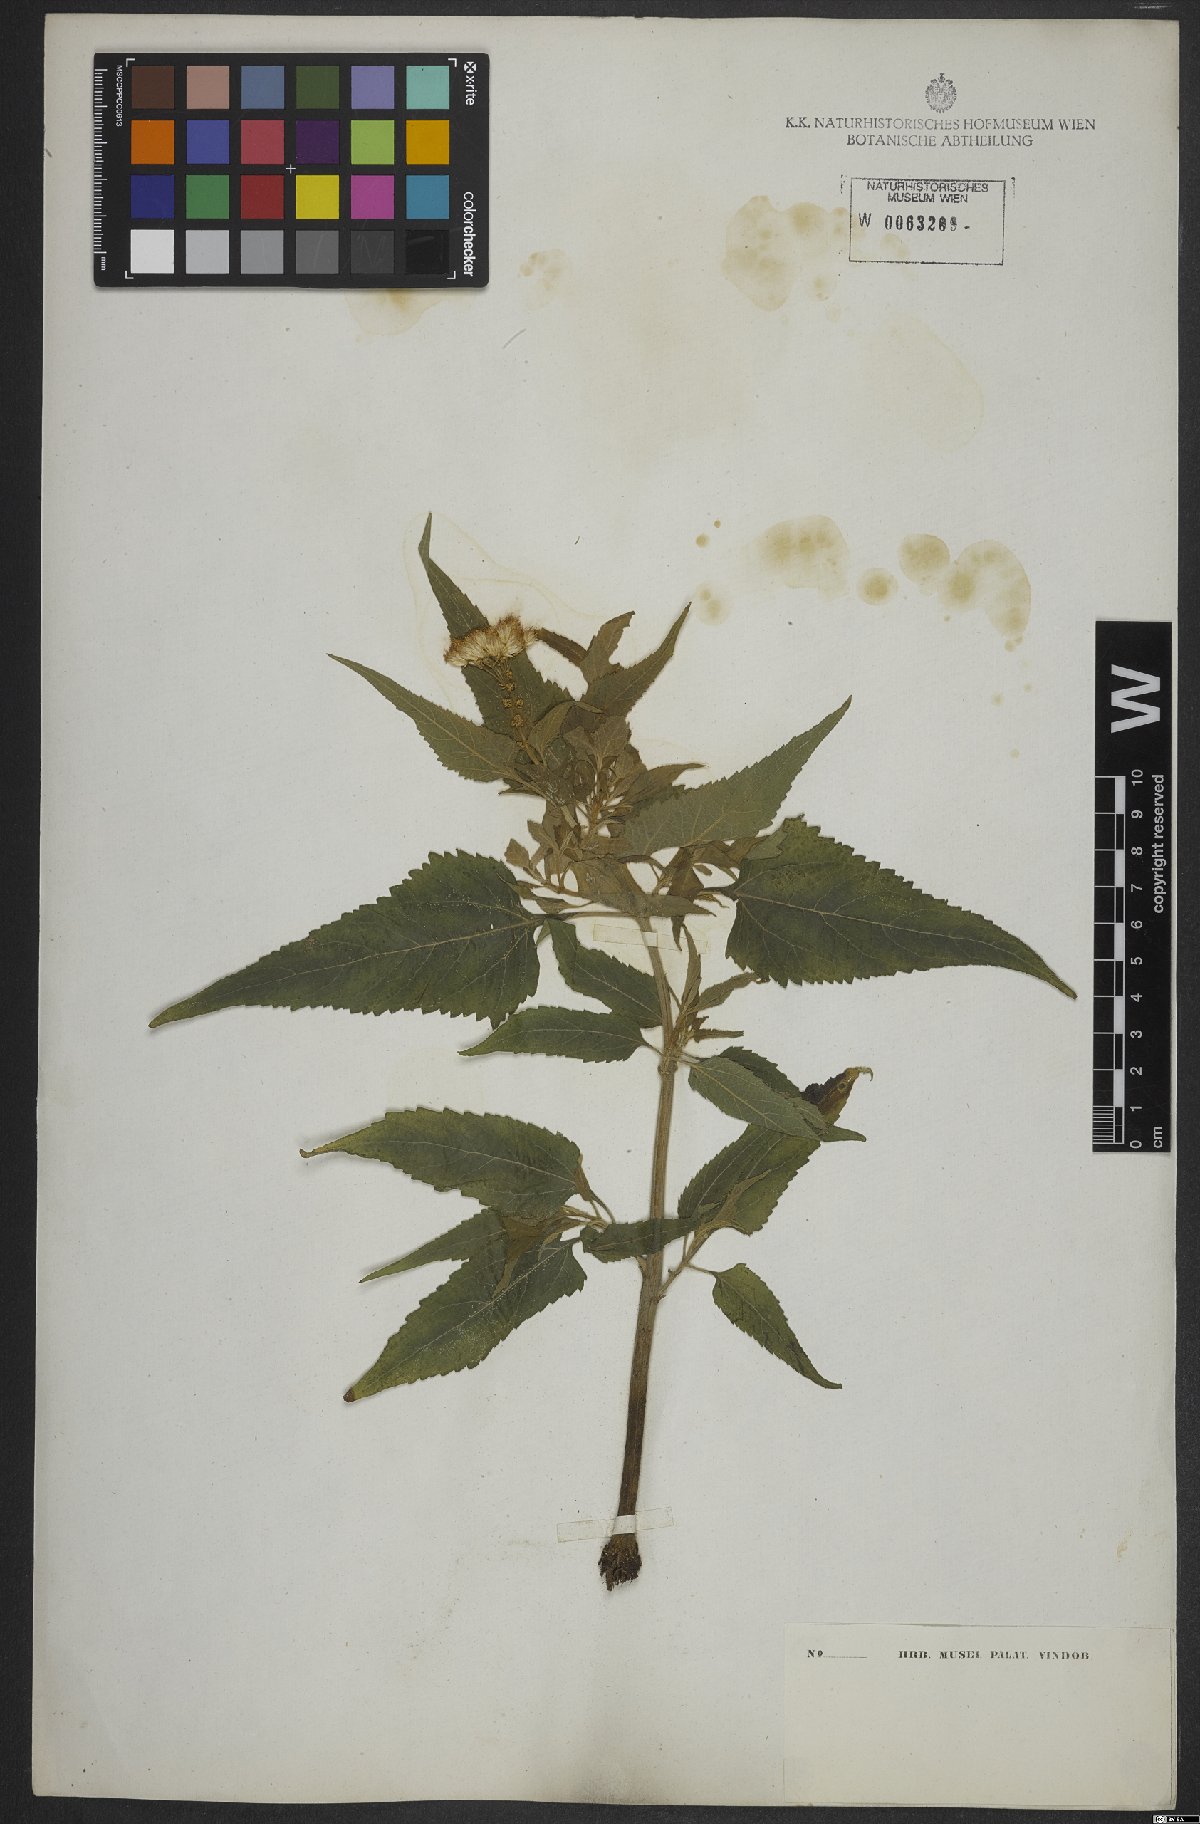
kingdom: Plantae
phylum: Tracheophyta
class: Magnoliopsida
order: Asterales
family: Asteraceae
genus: Austroeupatorium
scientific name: Austroeupatorium inulifolium
